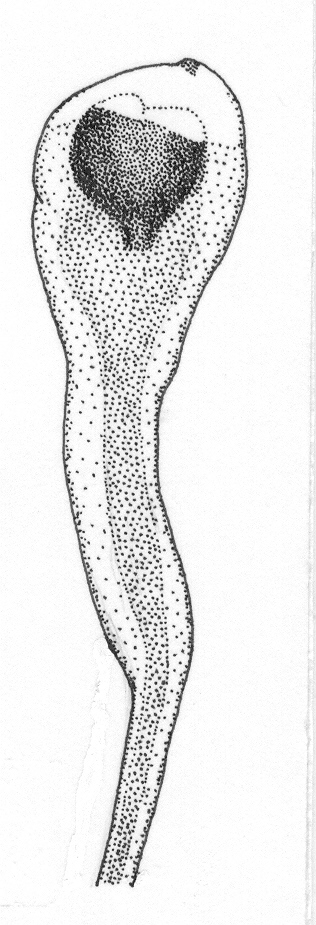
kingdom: Animalia
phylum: Chordata
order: Lophiiformes
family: Ceratiidae
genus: Ceratias
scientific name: Ceratias uranoscopus
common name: Stargazing seadevil
